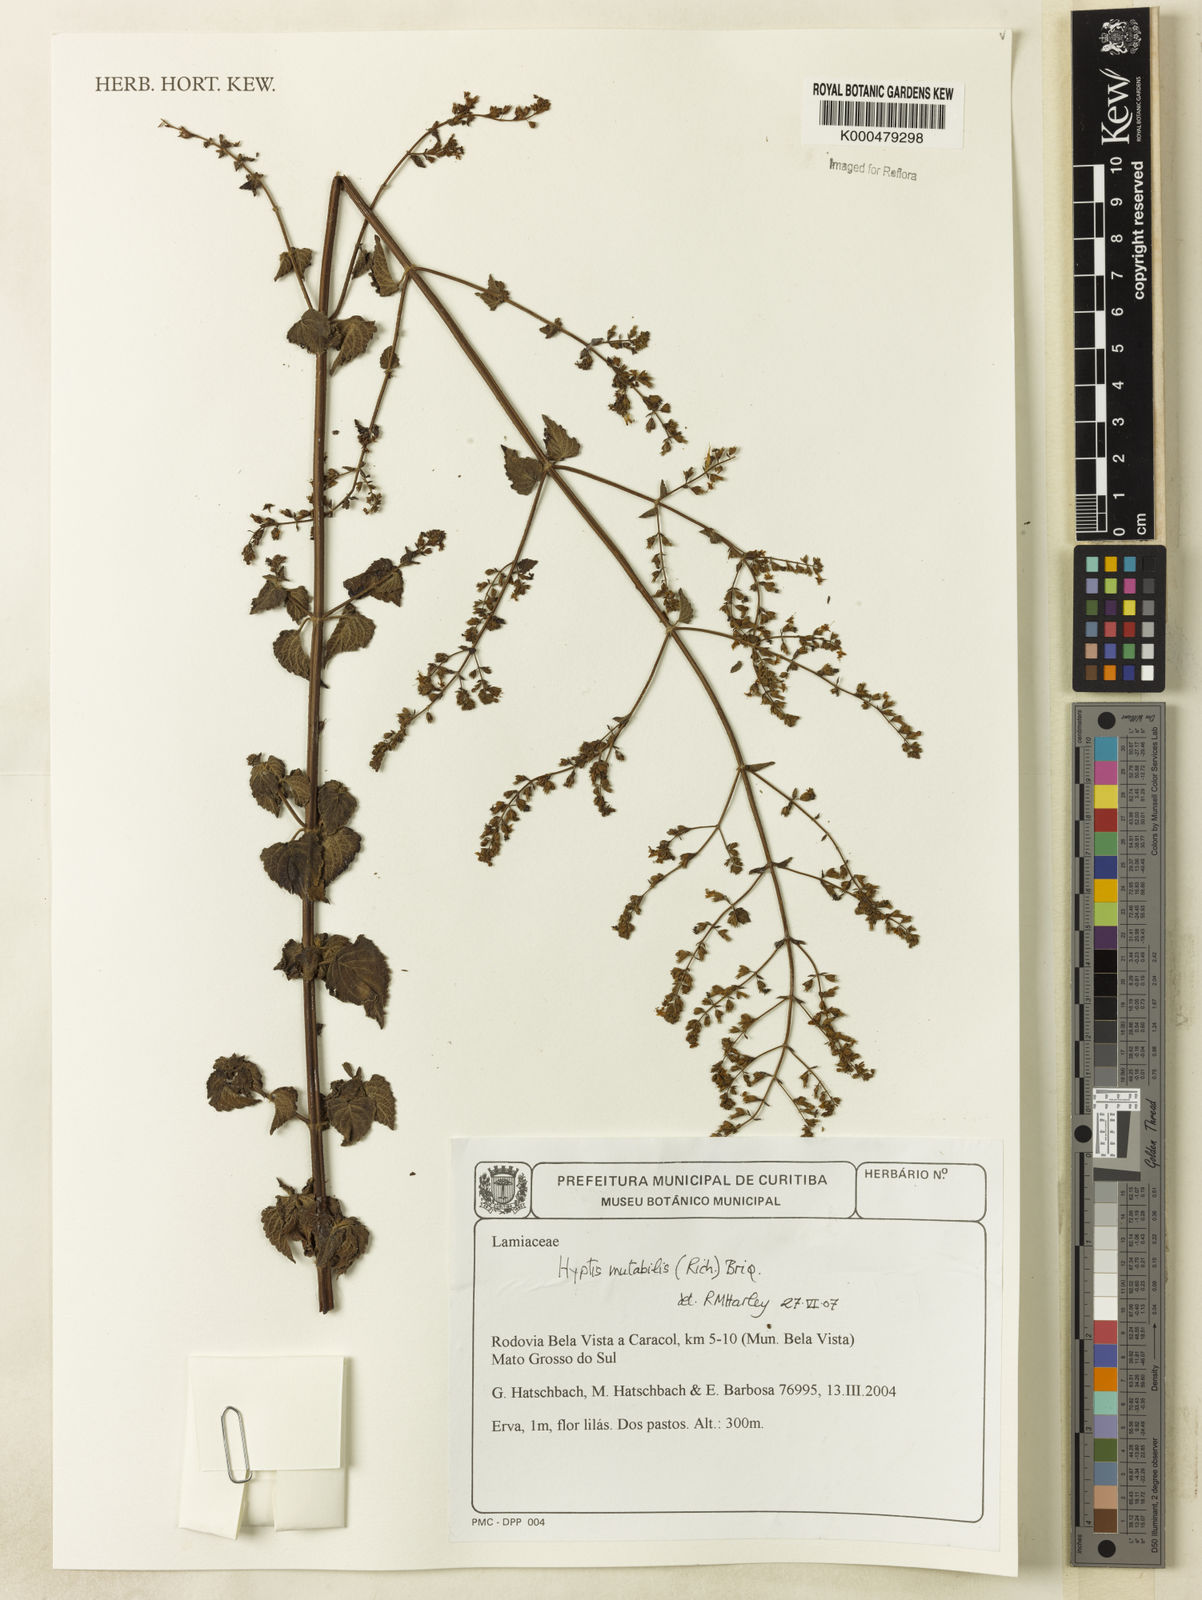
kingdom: Plantae
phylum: Tracheophyta
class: Magnoliopsida
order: Lamiales
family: Lamiaceae
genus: Cantinoa
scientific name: Cantinoa mutabilis
